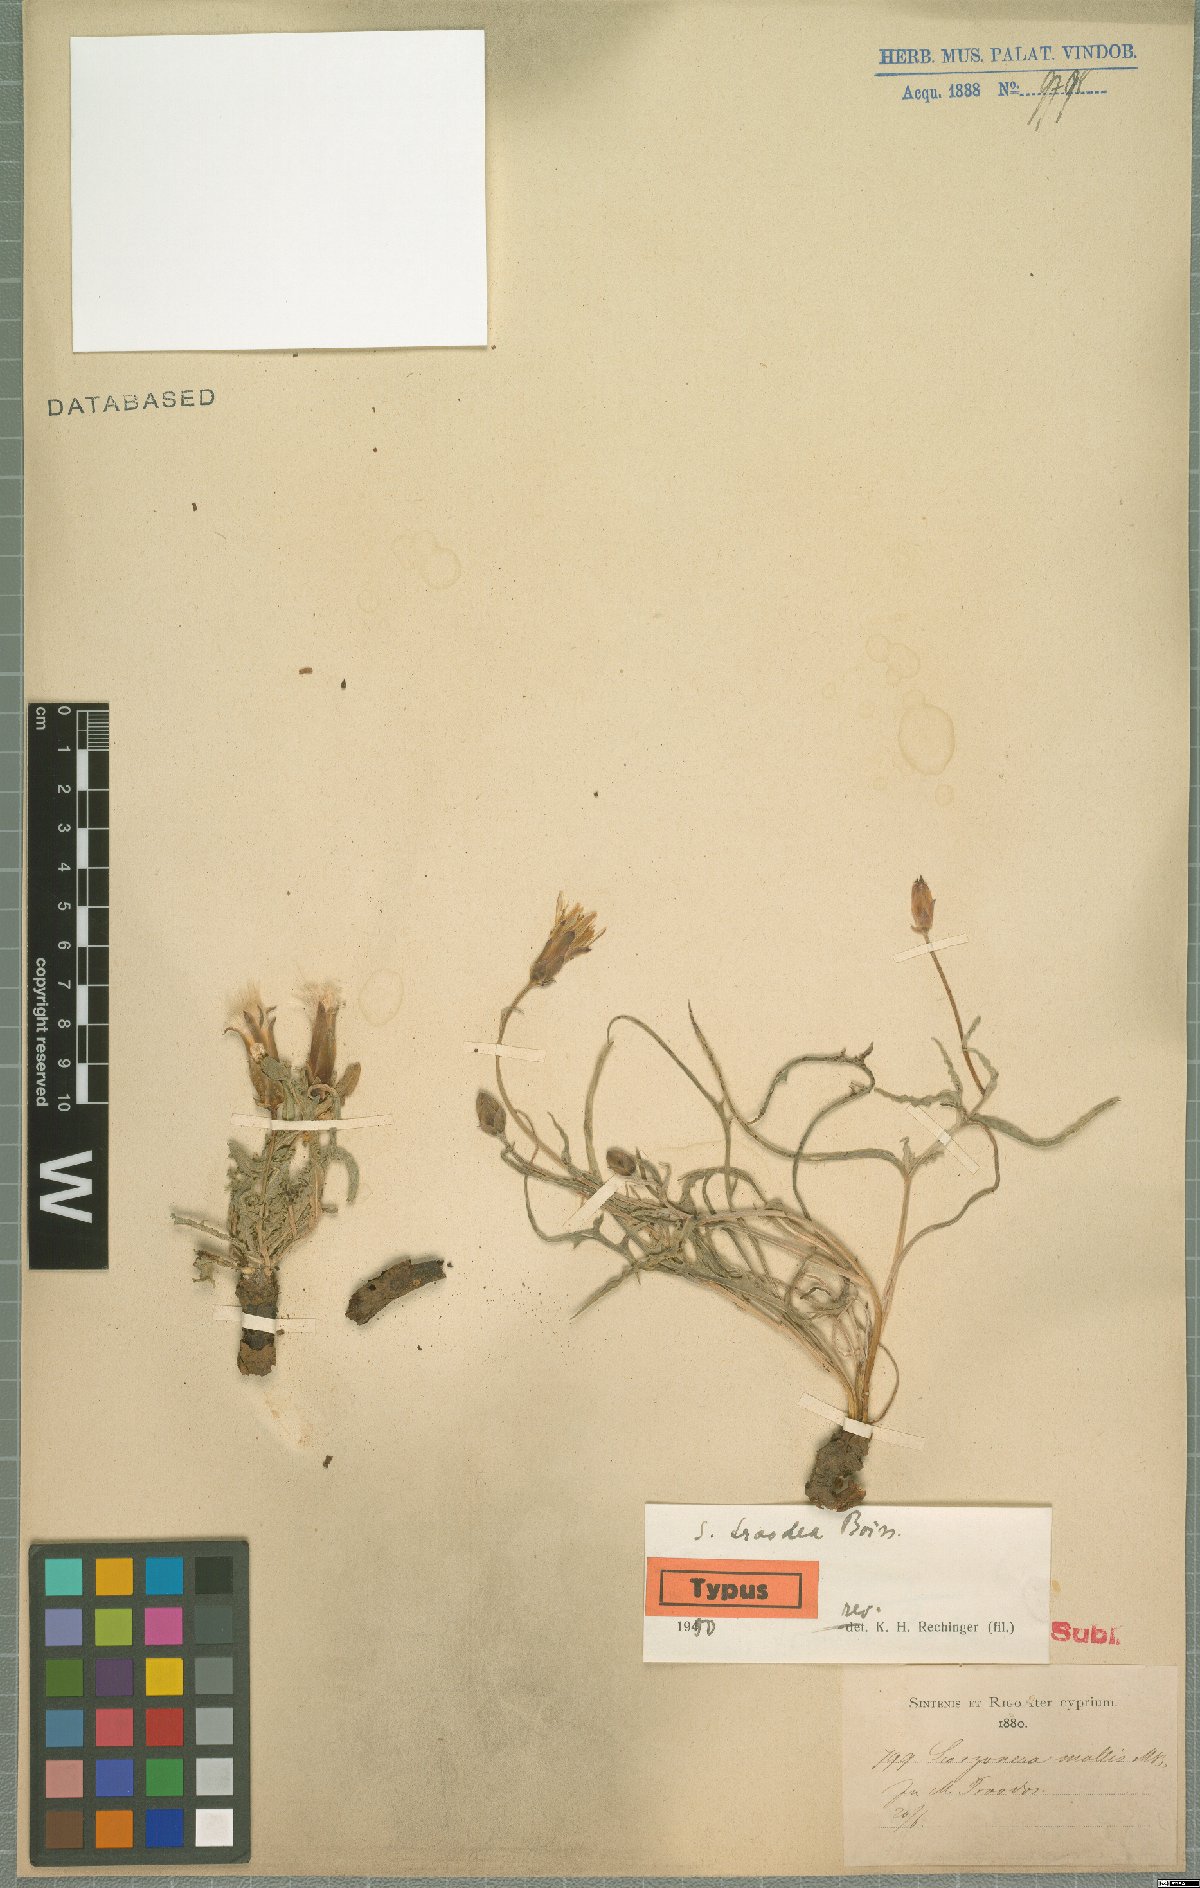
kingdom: Plantae
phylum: Tracheophyta
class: Magnoliopsida
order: Asterales
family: Asteraceae
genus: Pseudopodospermum
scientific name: Pseudopodospermum troodeum
